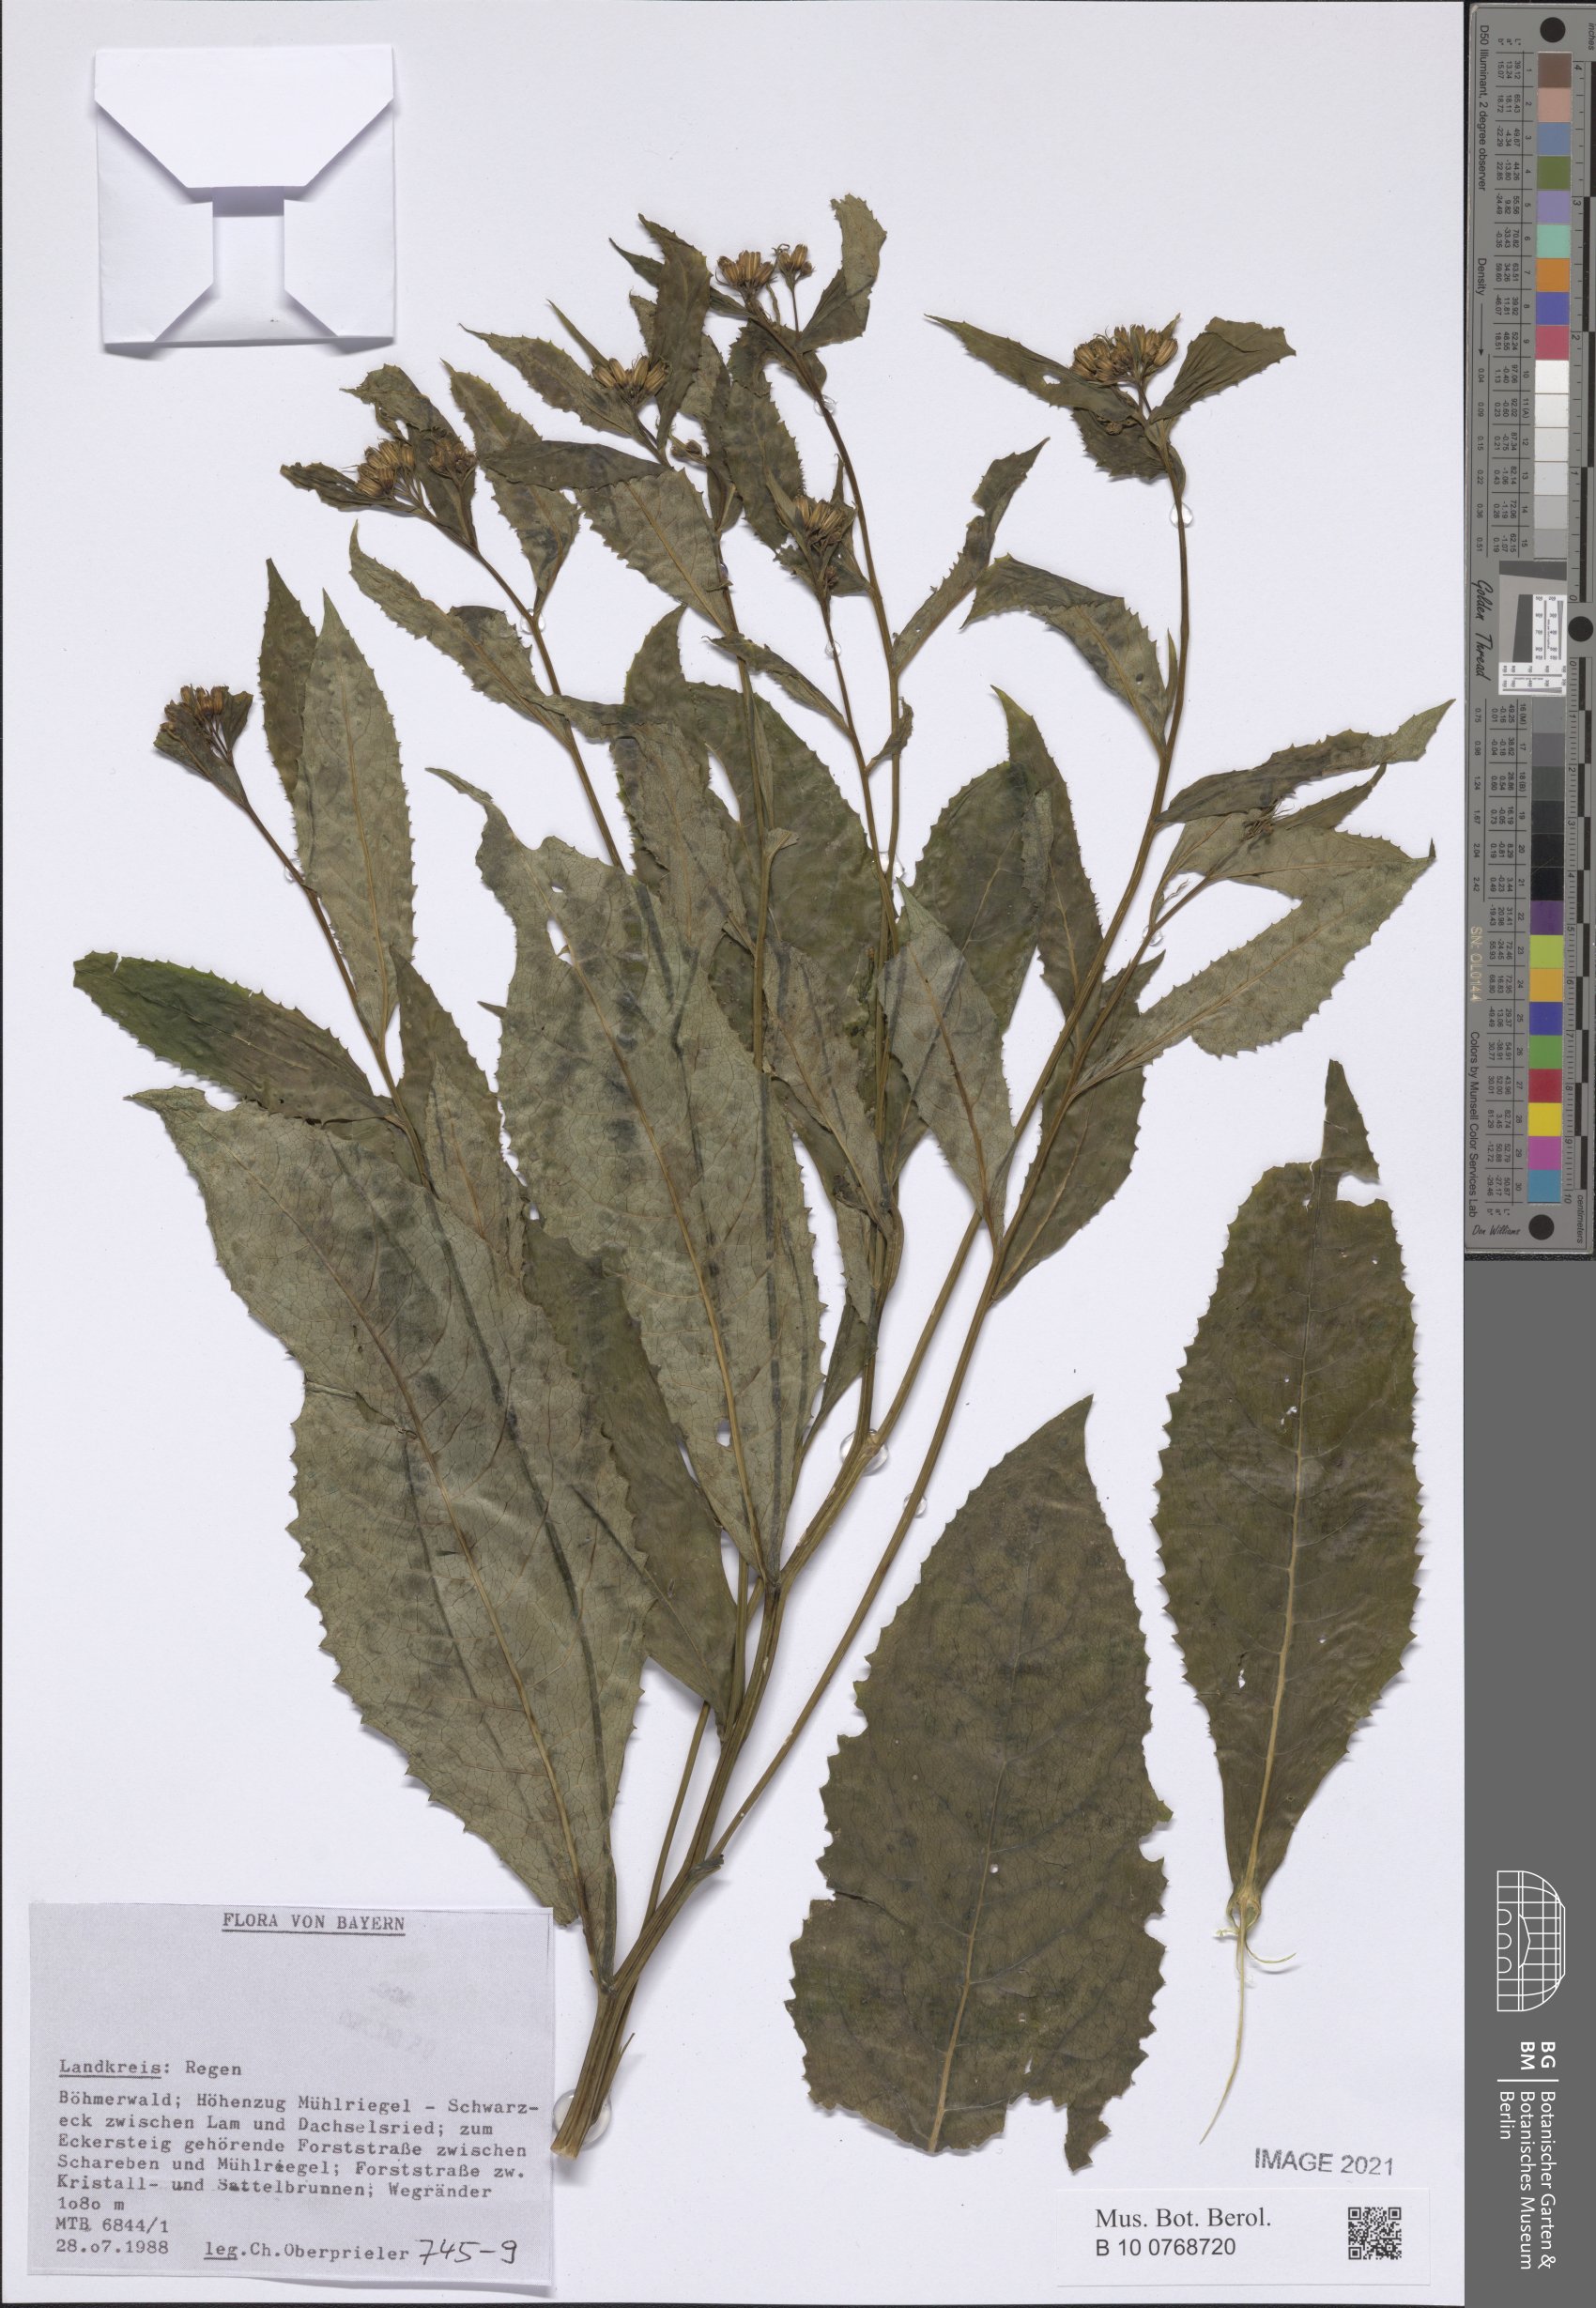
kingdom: Plantae
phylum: Tracheophyta
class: Magnoliopsida
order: Asterales
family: Asteraceae
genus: Senecio
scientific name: Senecio
